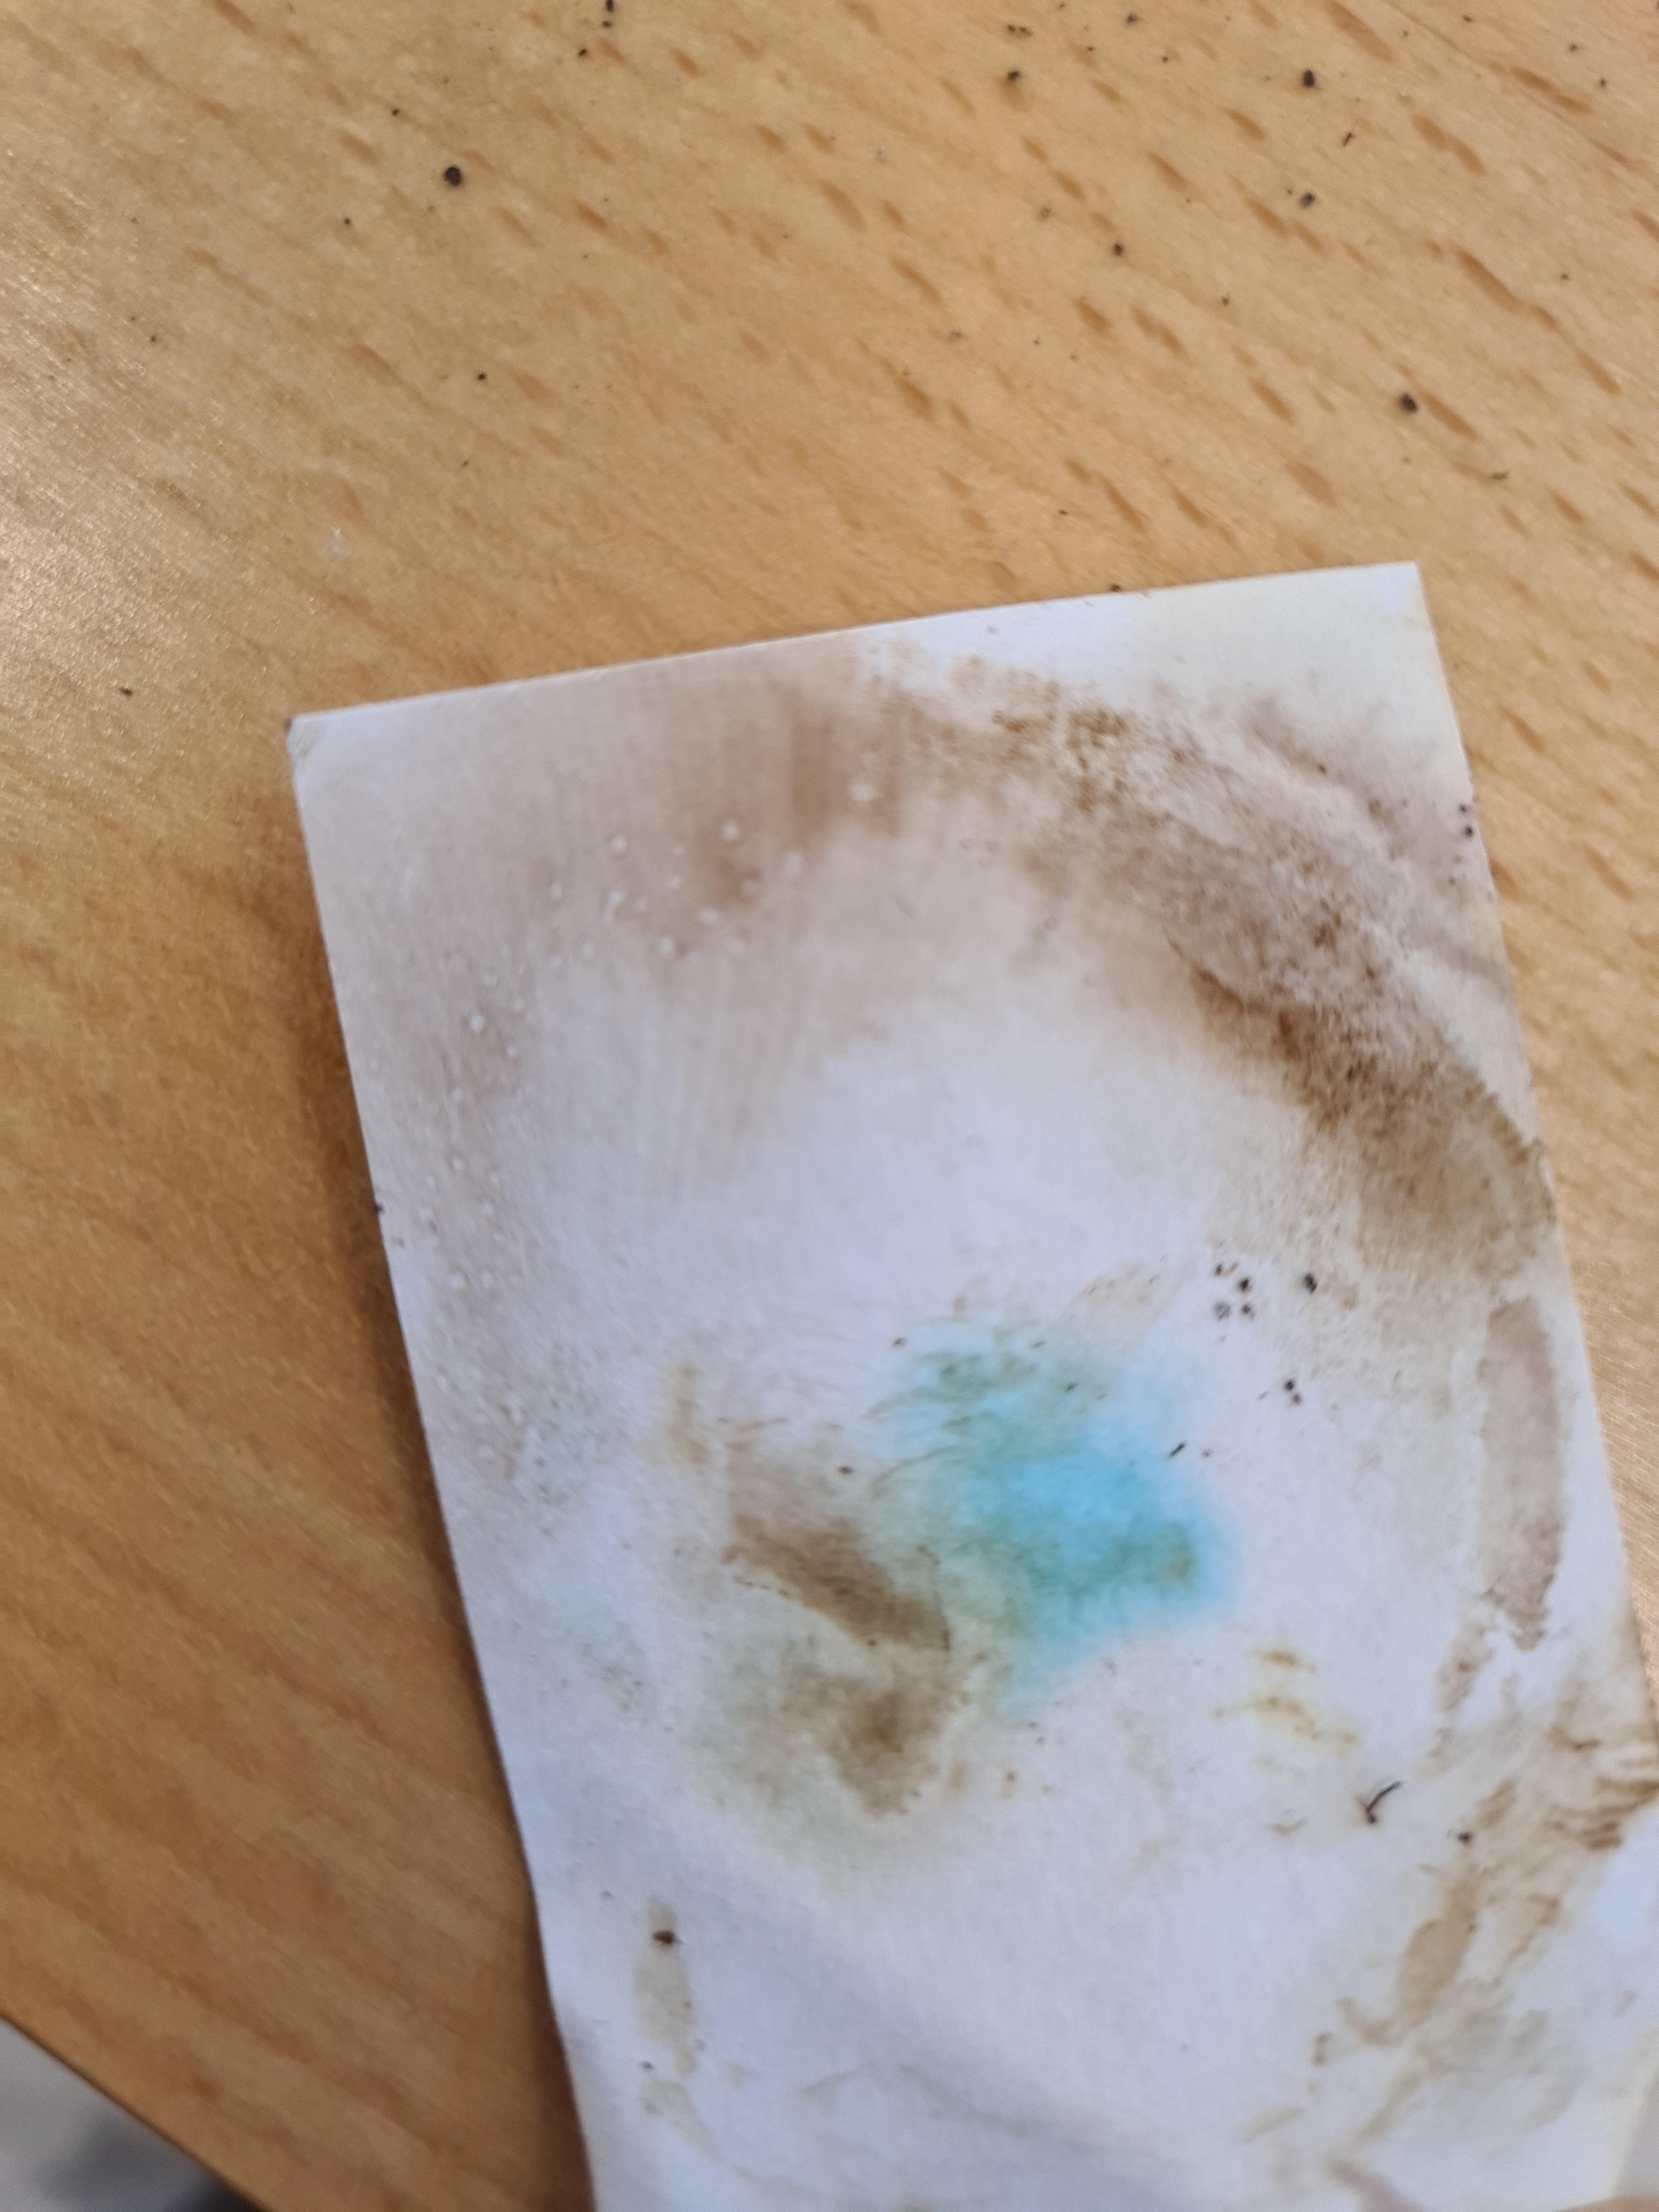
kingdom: Fungi
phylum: Basidiomycota
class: Agaricomycetes
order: Boletales
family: Paxillaceae
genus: Paxillus
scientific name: Paxillus involutus
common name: almindelig netbladhat
